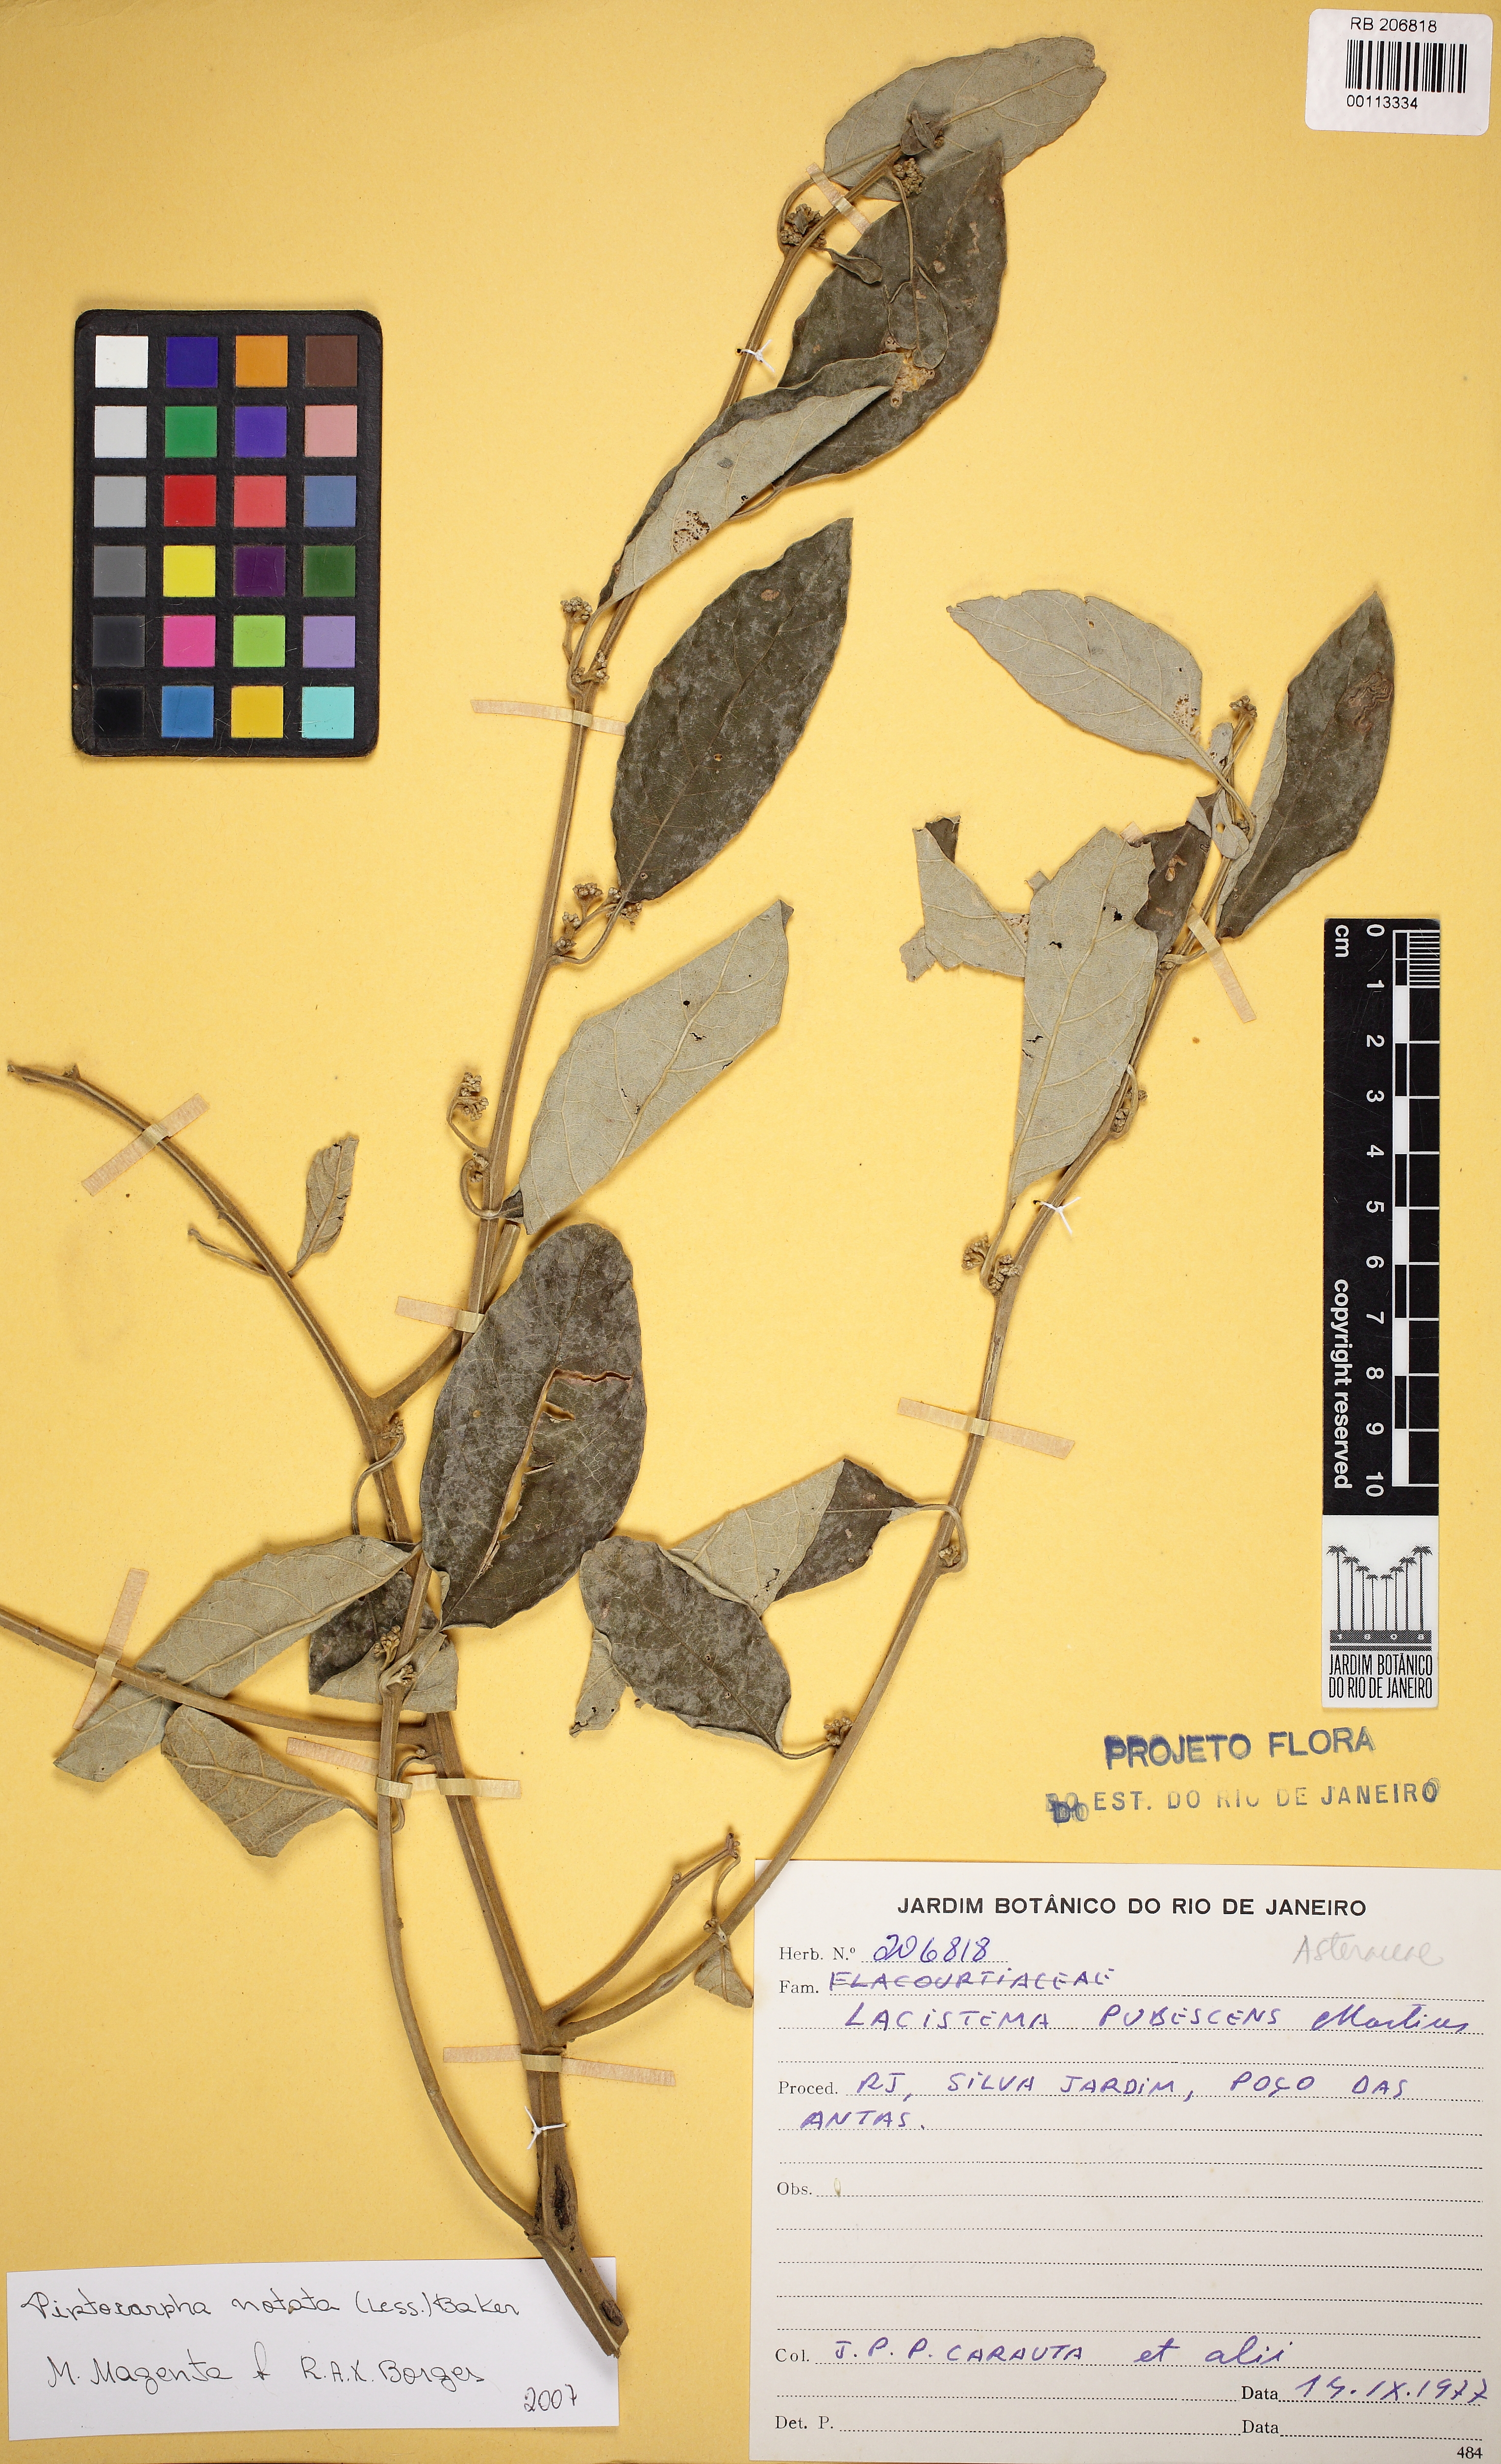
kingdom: Plantae
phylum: Tracheophyta
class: Magnoliopsida
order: Asterales
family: Asteraceae
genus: Piptocarpha
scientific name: Piptocarpha notata
